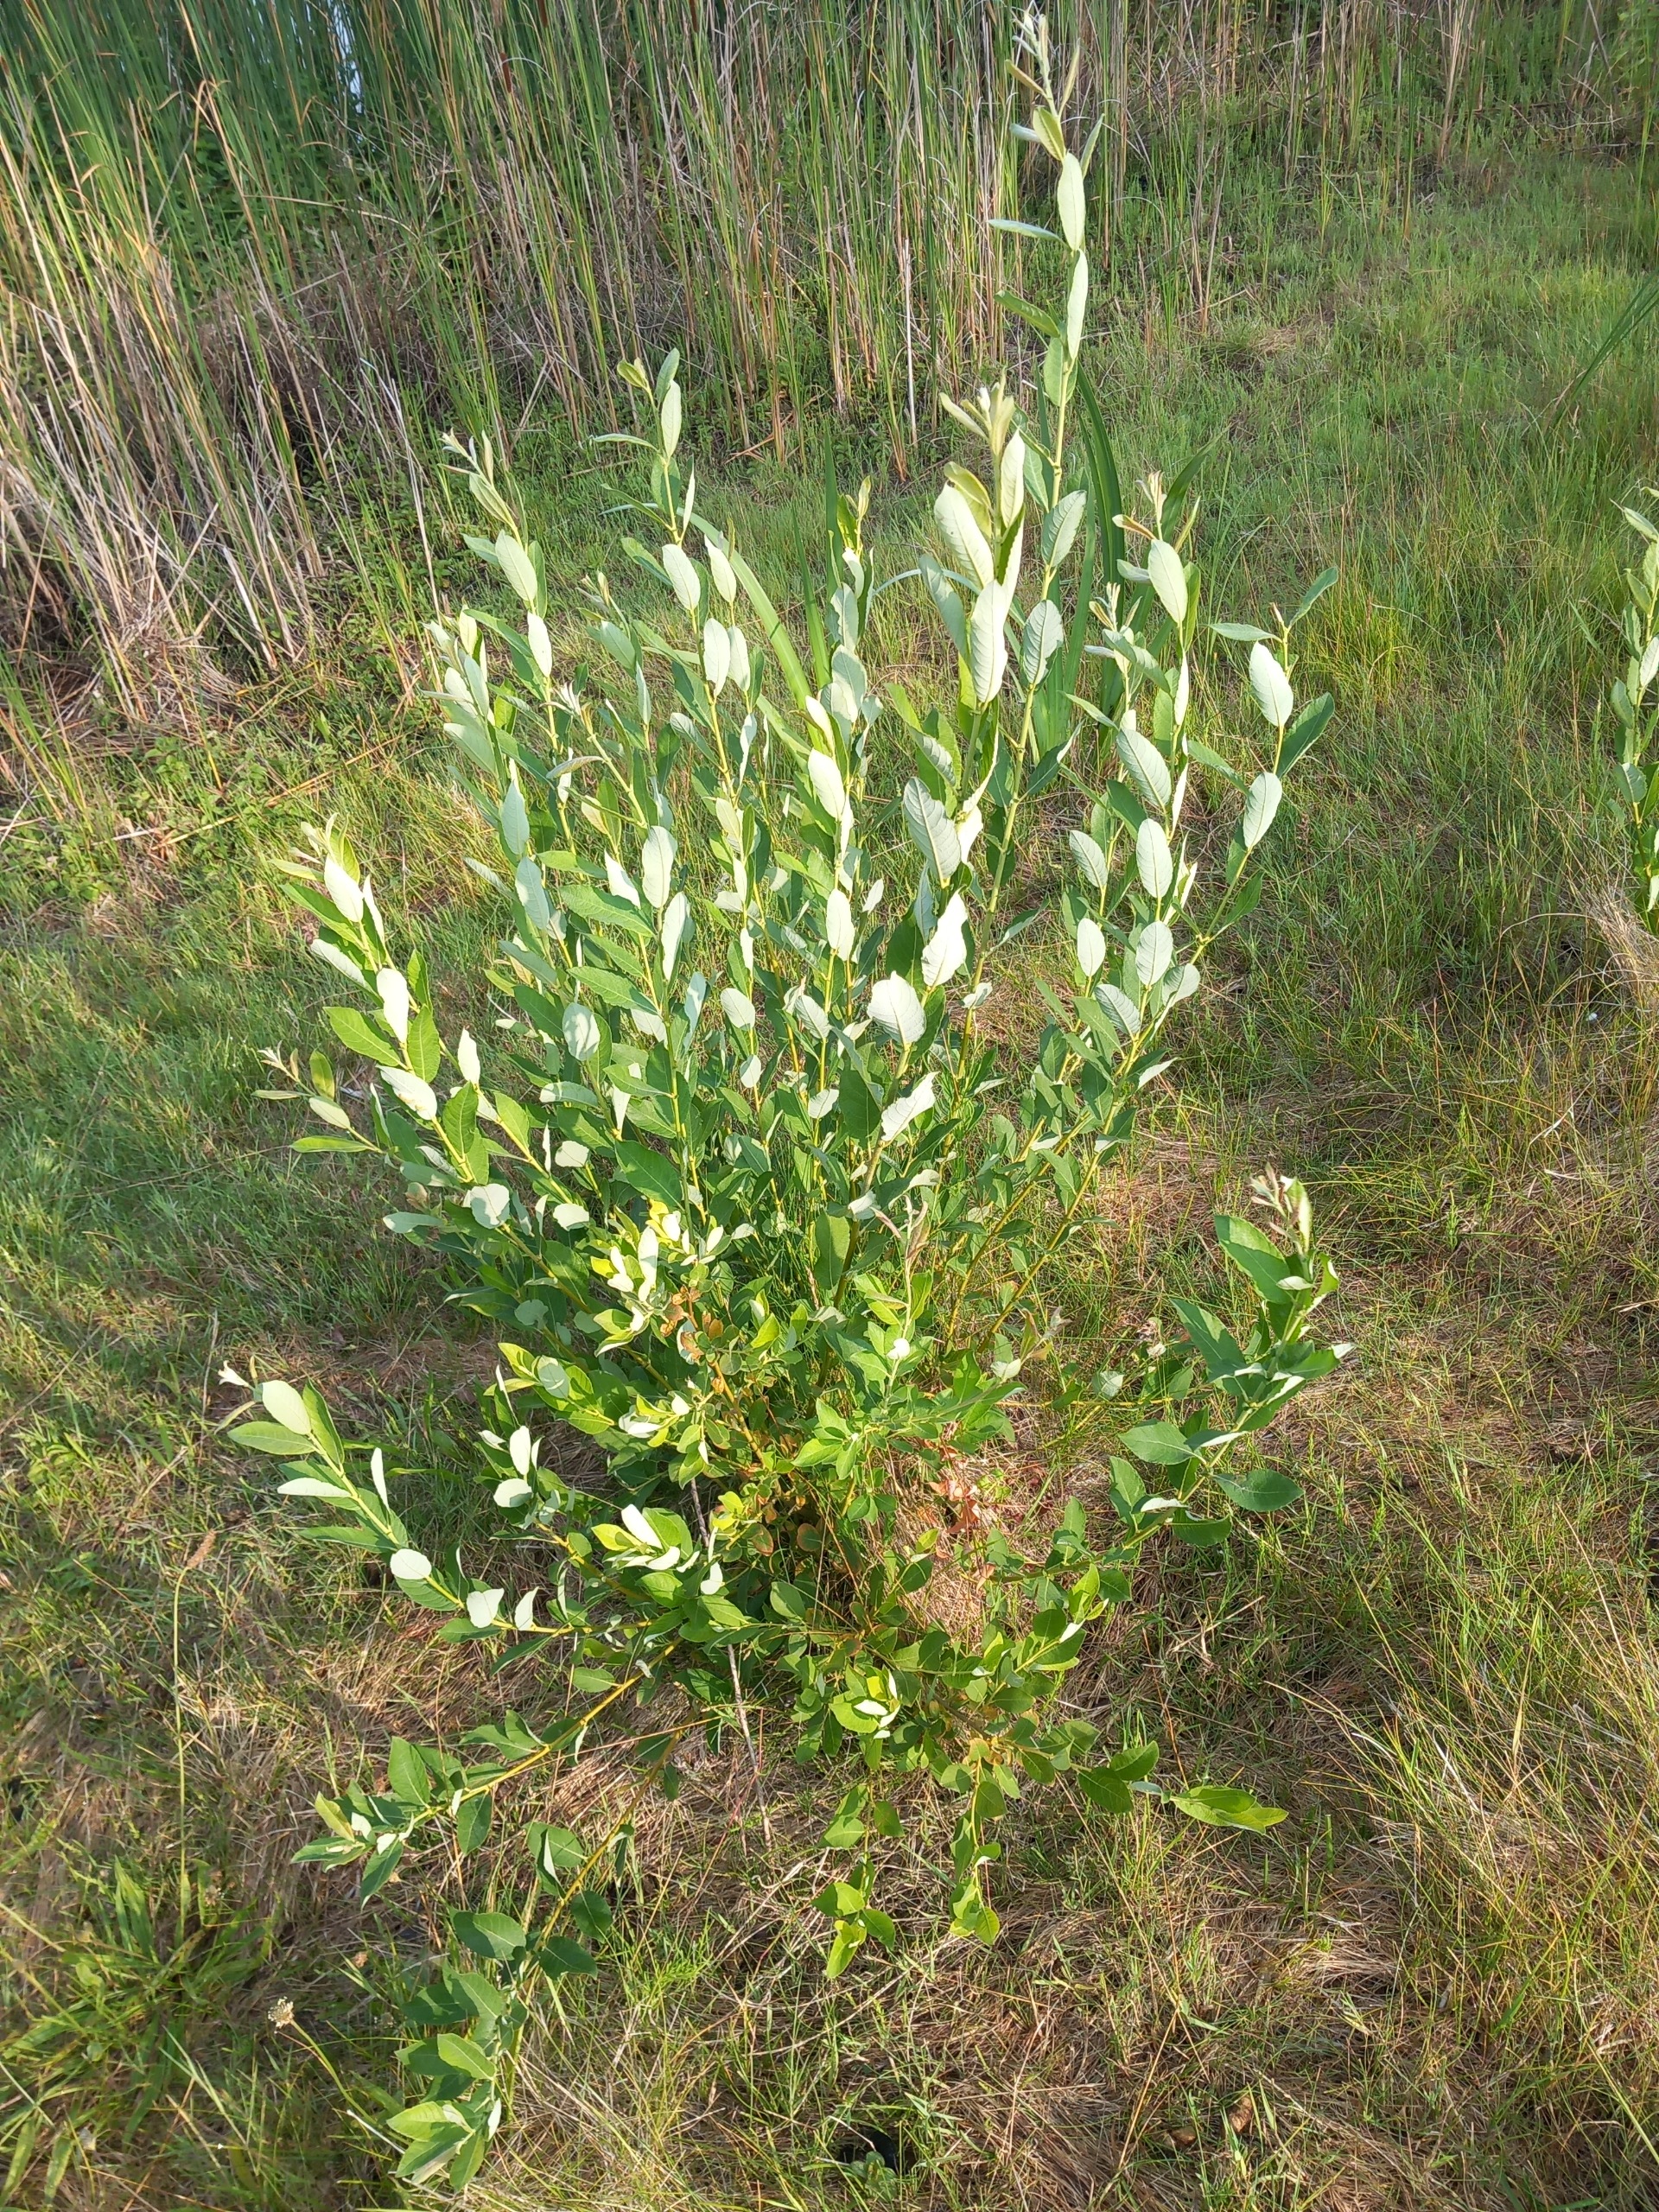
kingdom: Plantae
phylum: Tracheophyta
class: Magnoliopsida
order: Malpighiales
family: Salicaceae
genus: Salix
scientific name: Salix
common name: Pileslægten
